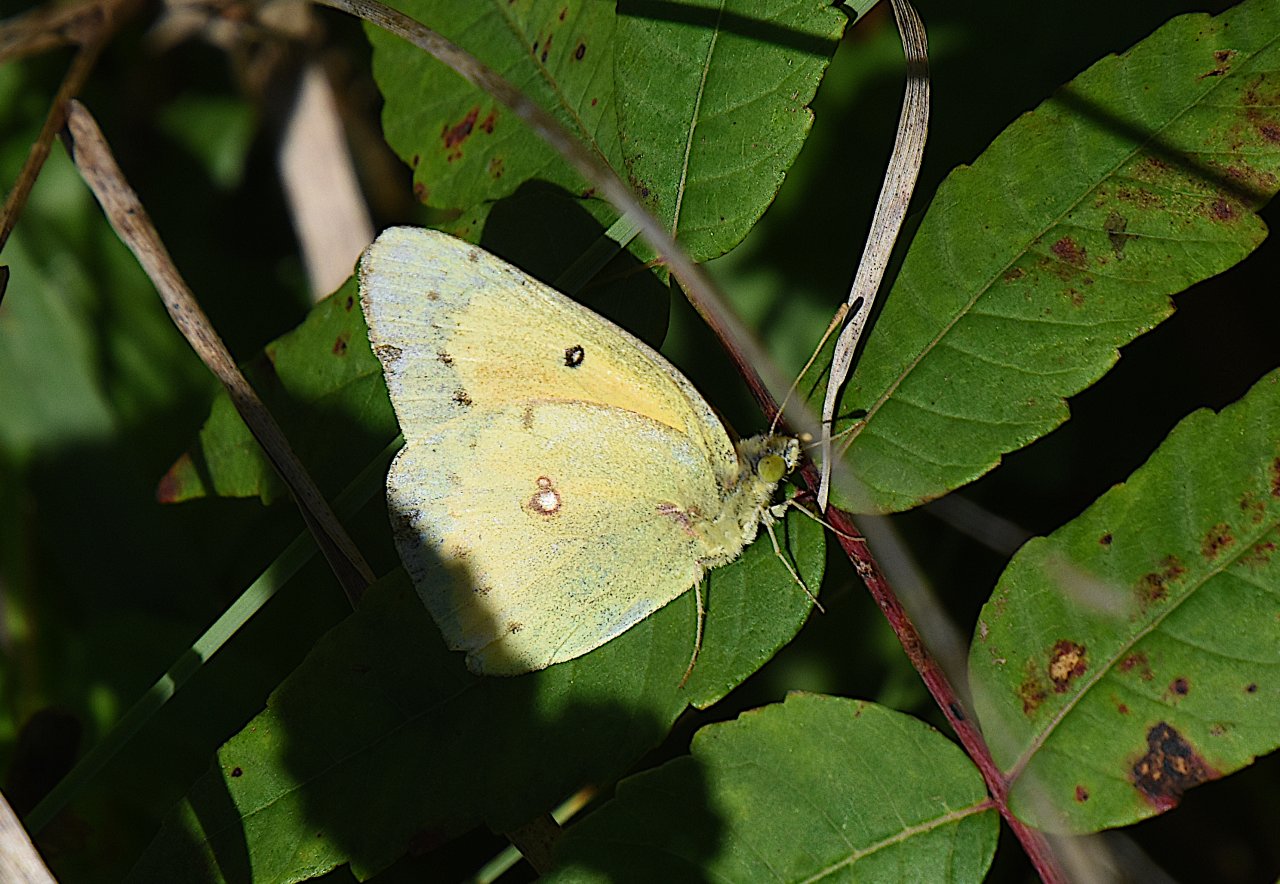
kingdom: Animalia
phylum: Arthropoda
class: Insecta
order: Lepidoptera
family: Pieridae
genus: Colias
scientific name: Colias eurytheme
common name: Orange Sulphur
